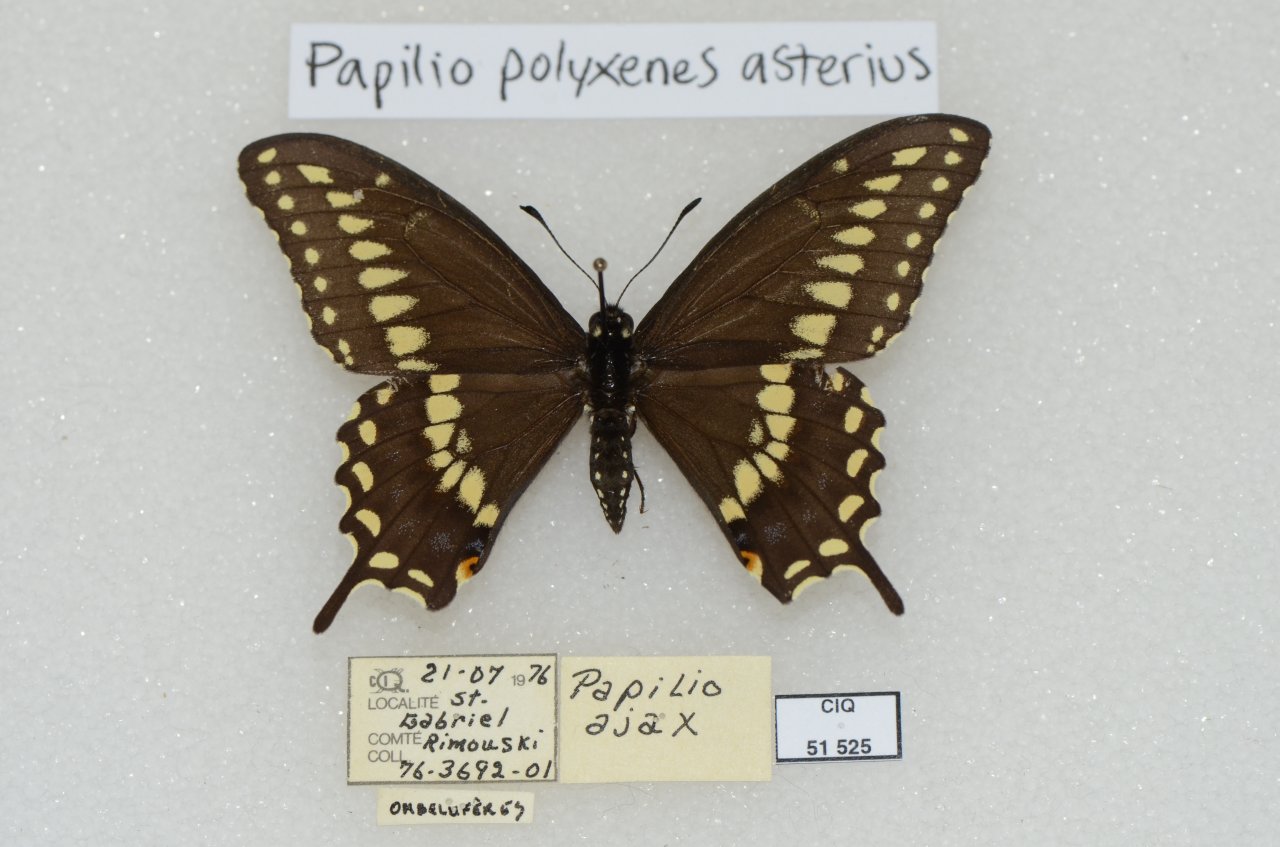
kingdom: Animalia
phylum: Arthropoda
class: Insecta
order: Lepidoptera
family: Papilionidae
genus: Papilio
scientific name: Papilio polyxenes
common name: Black Swallowtail
